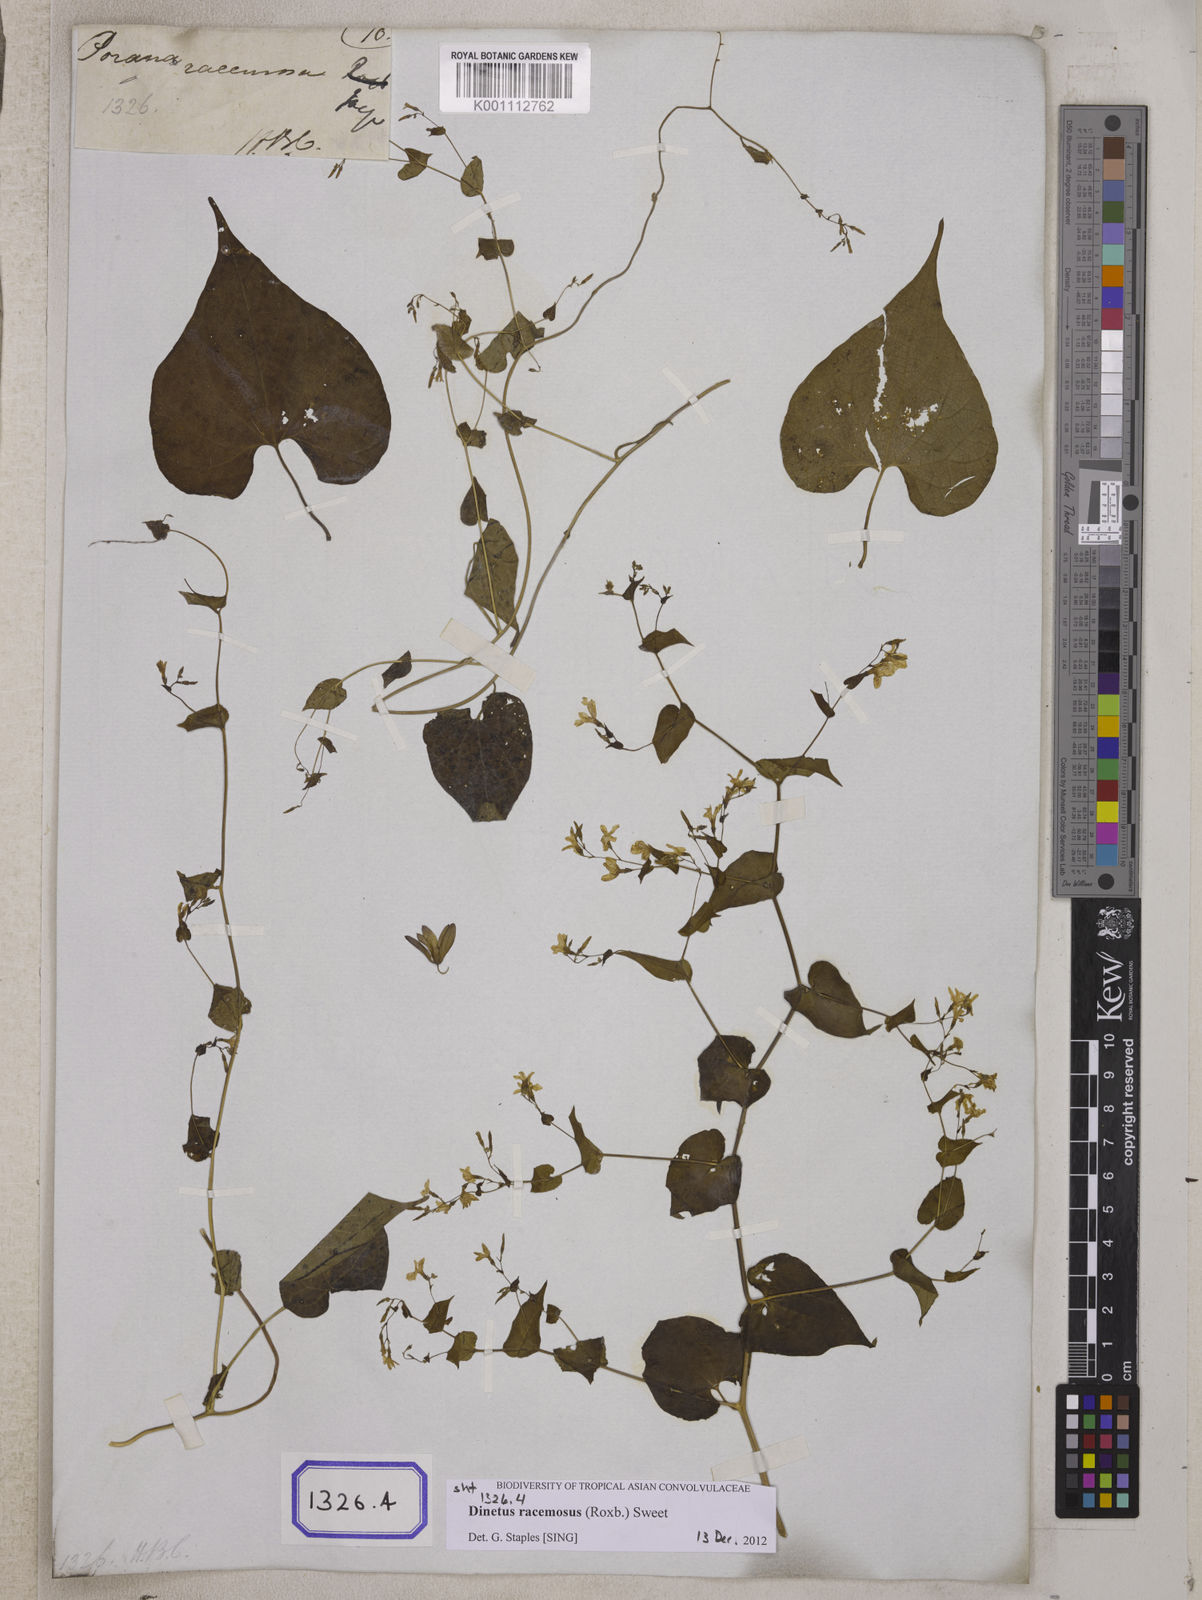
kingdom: Plantae
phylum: Tracheophyta
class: Magnoliopsida
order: Solanales
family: Convolvulaceae
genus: Porana
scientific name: Porana
